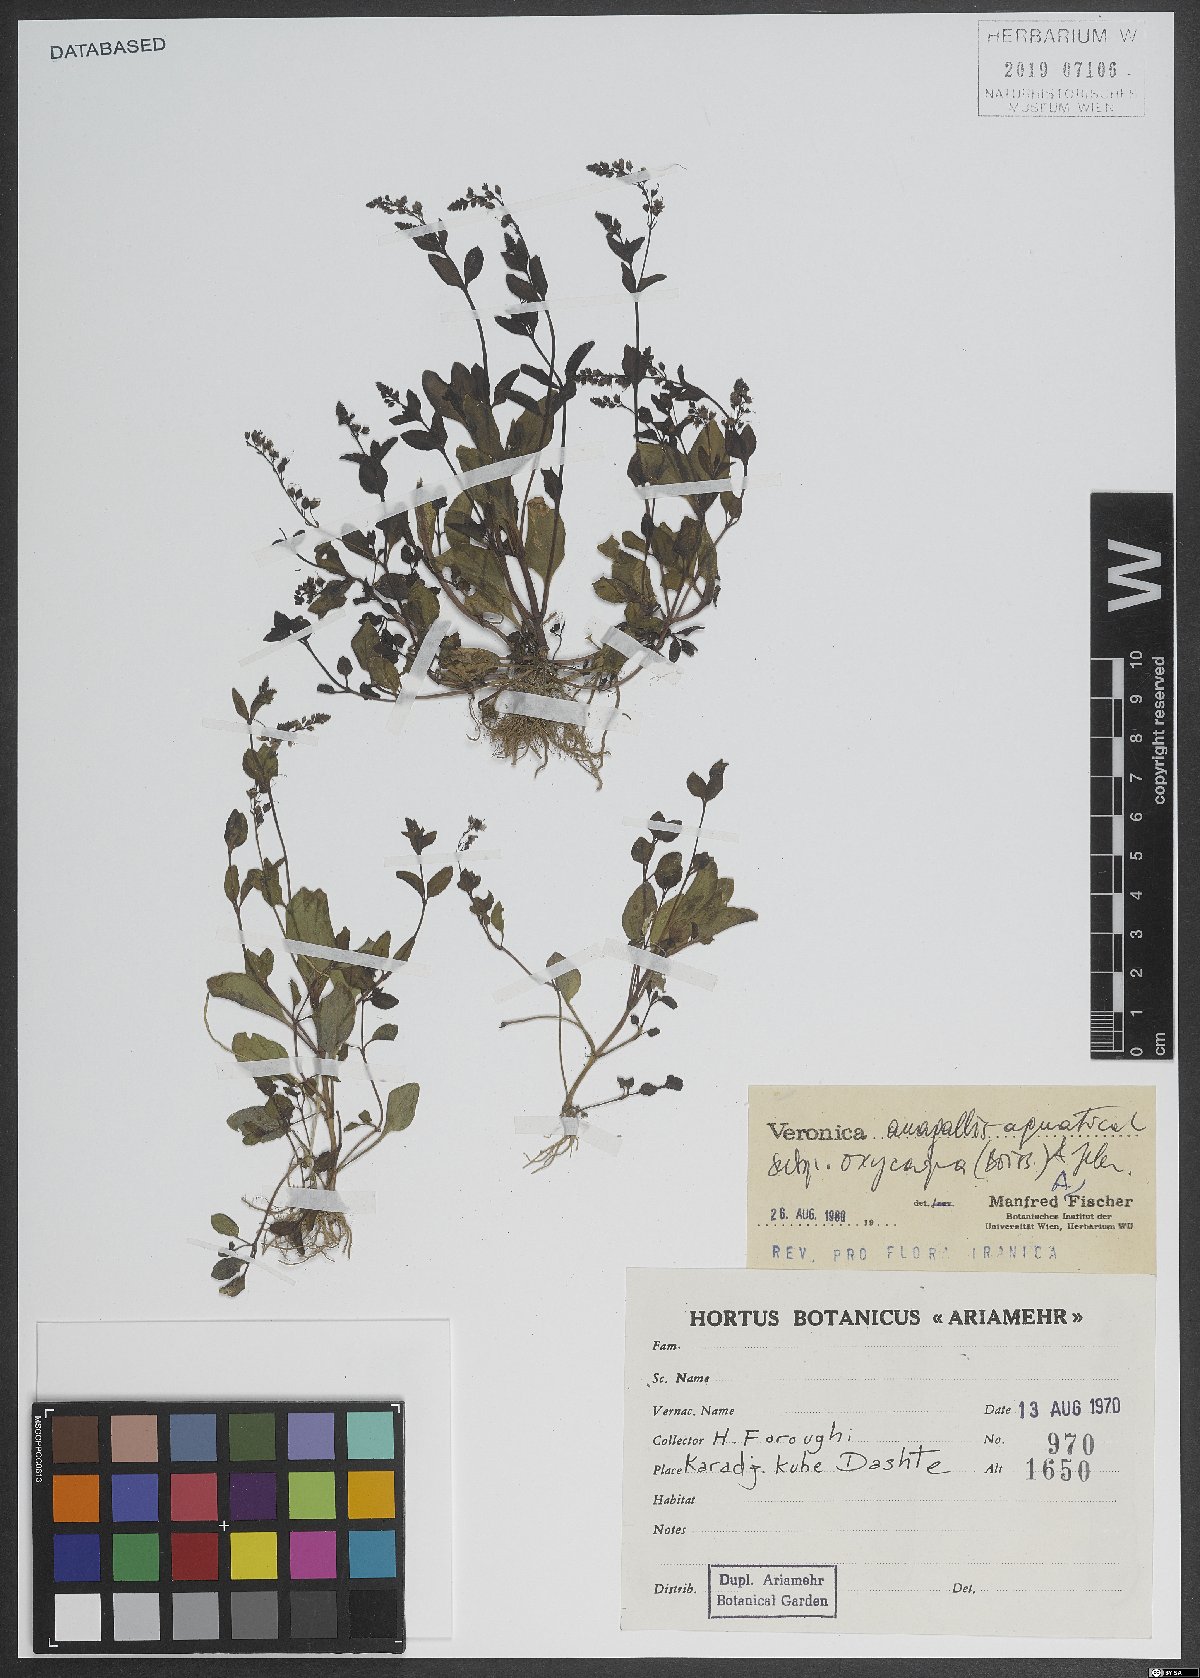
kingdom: Plantae
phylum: Tracheophyta
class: Magnoliopsida
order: Lamiales
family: Plantaginaceae
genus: Veronica
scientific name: Veronica oxycarpa
